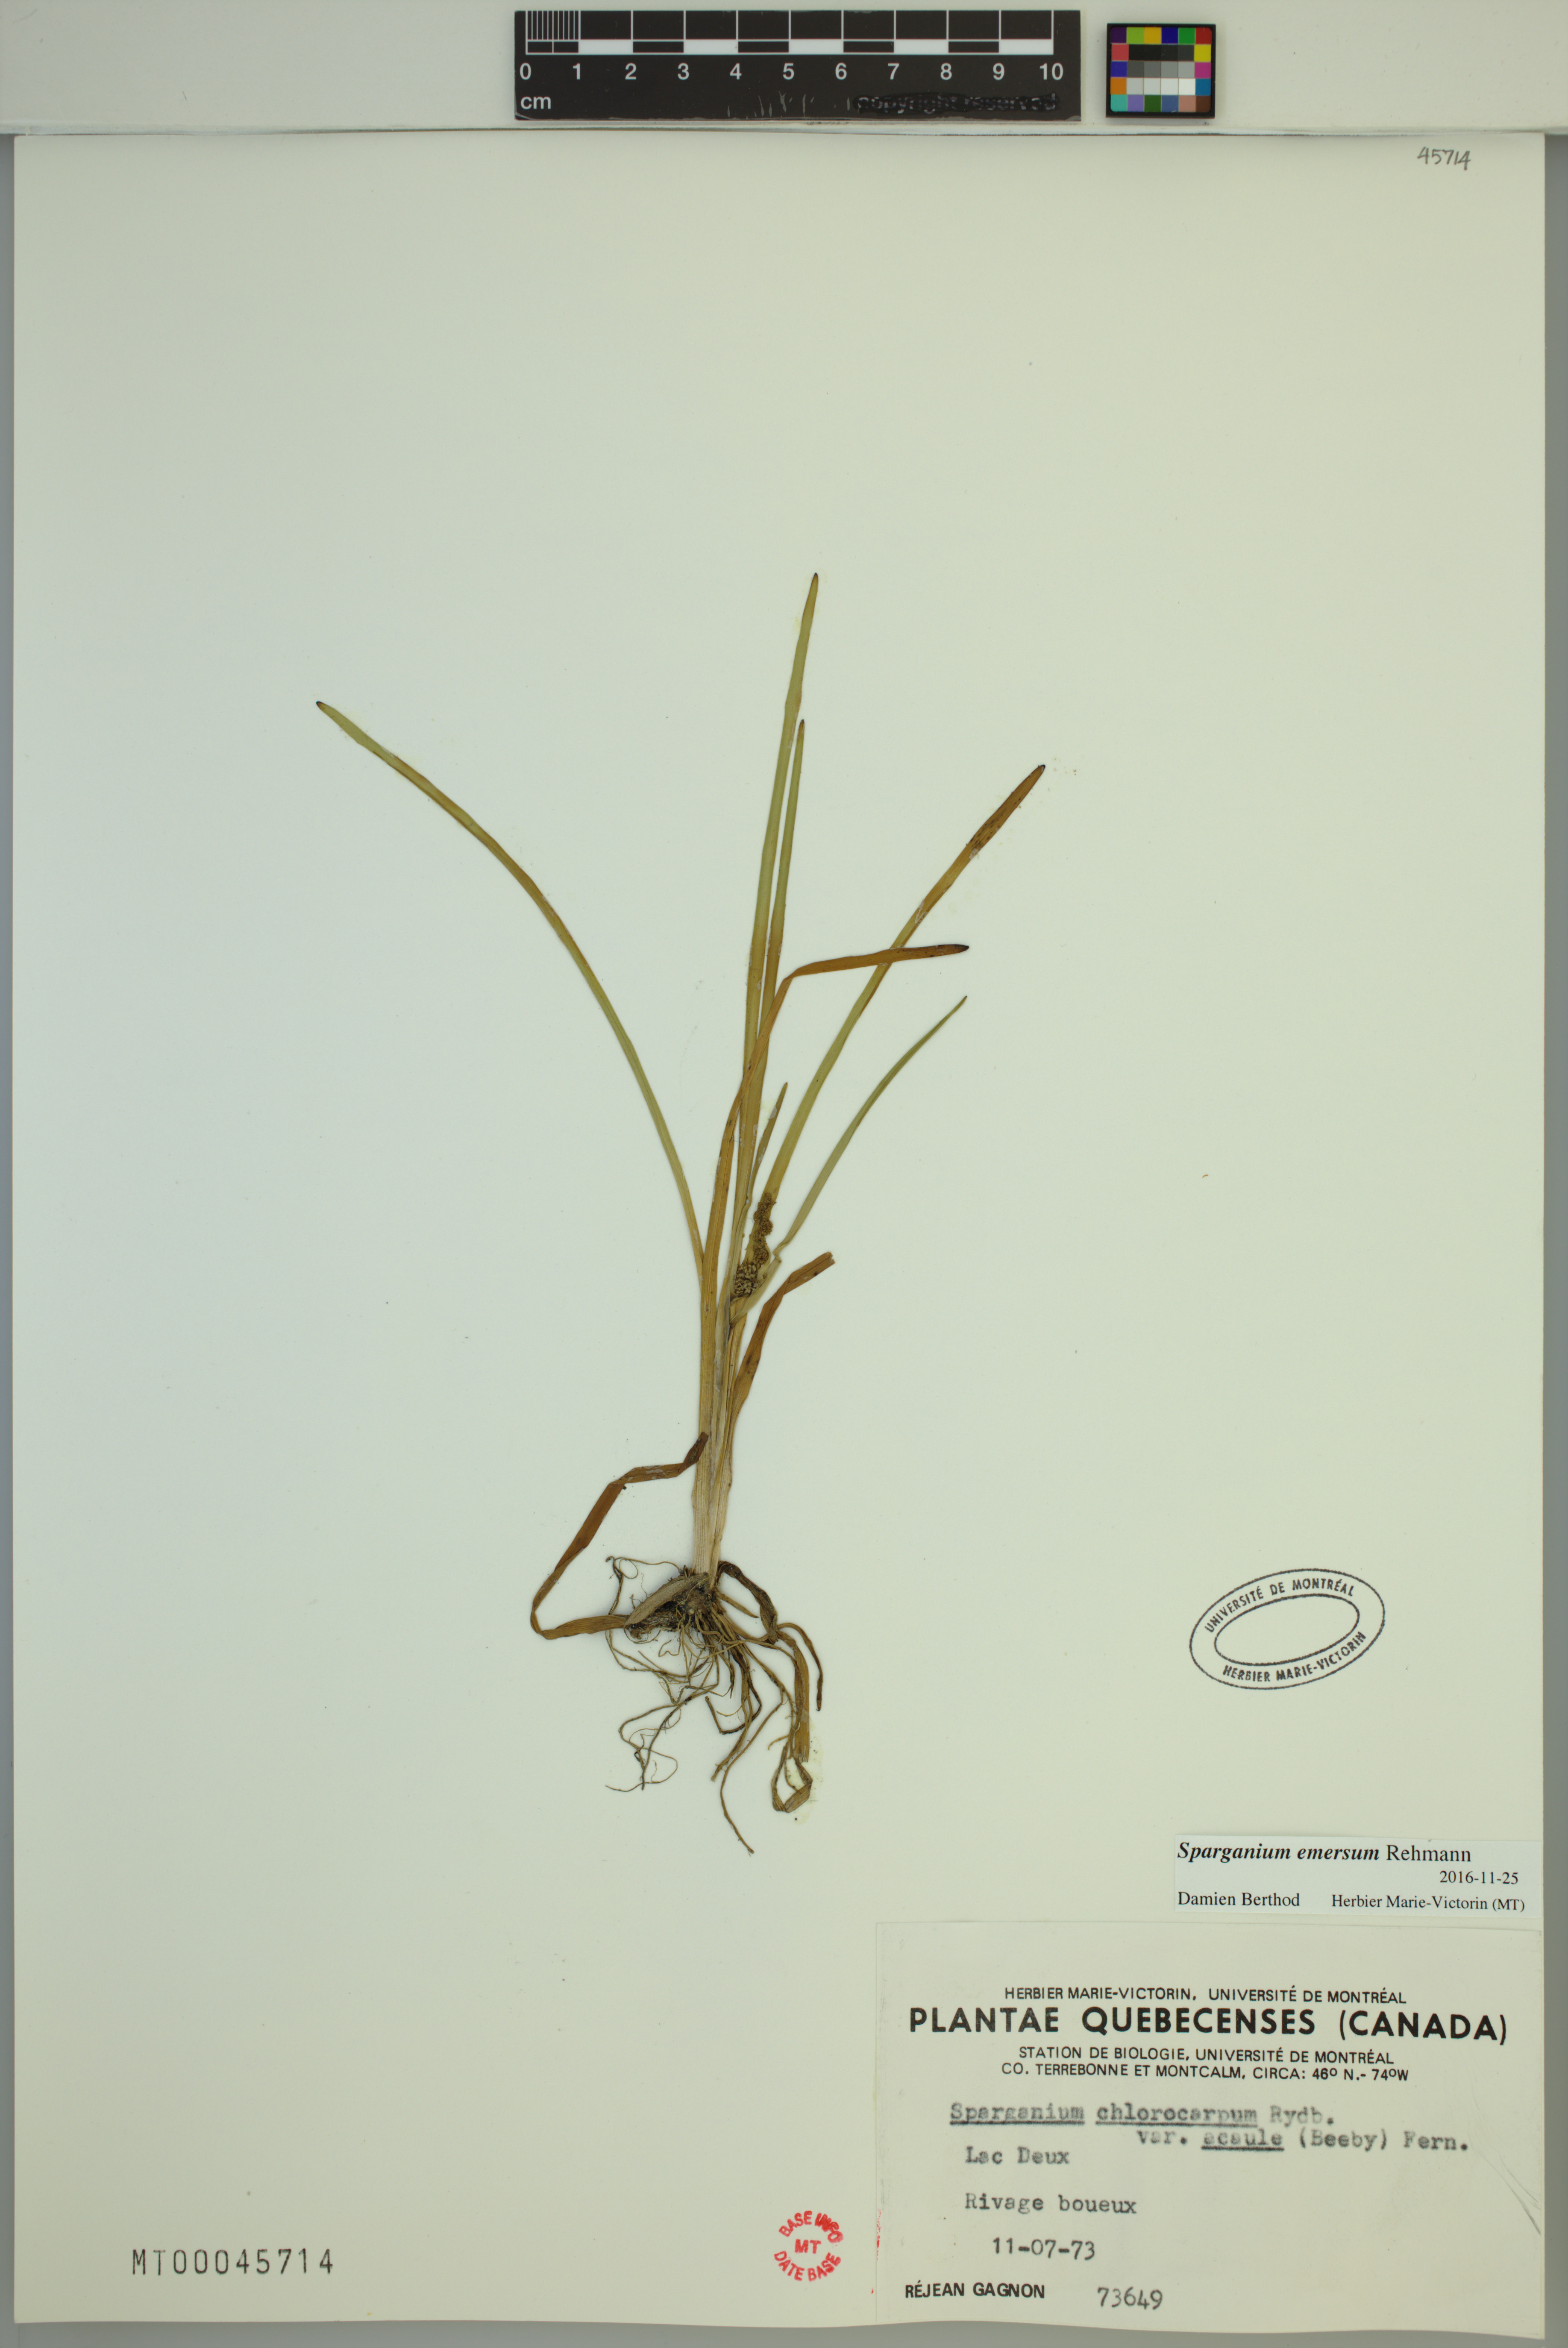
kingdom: Plantae
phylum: Tracheophyta
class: Liliopsida
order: Poales
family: Typhaceae
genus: Sparganium
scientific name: Sparganium emersum
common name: Unbranched bur-reed
